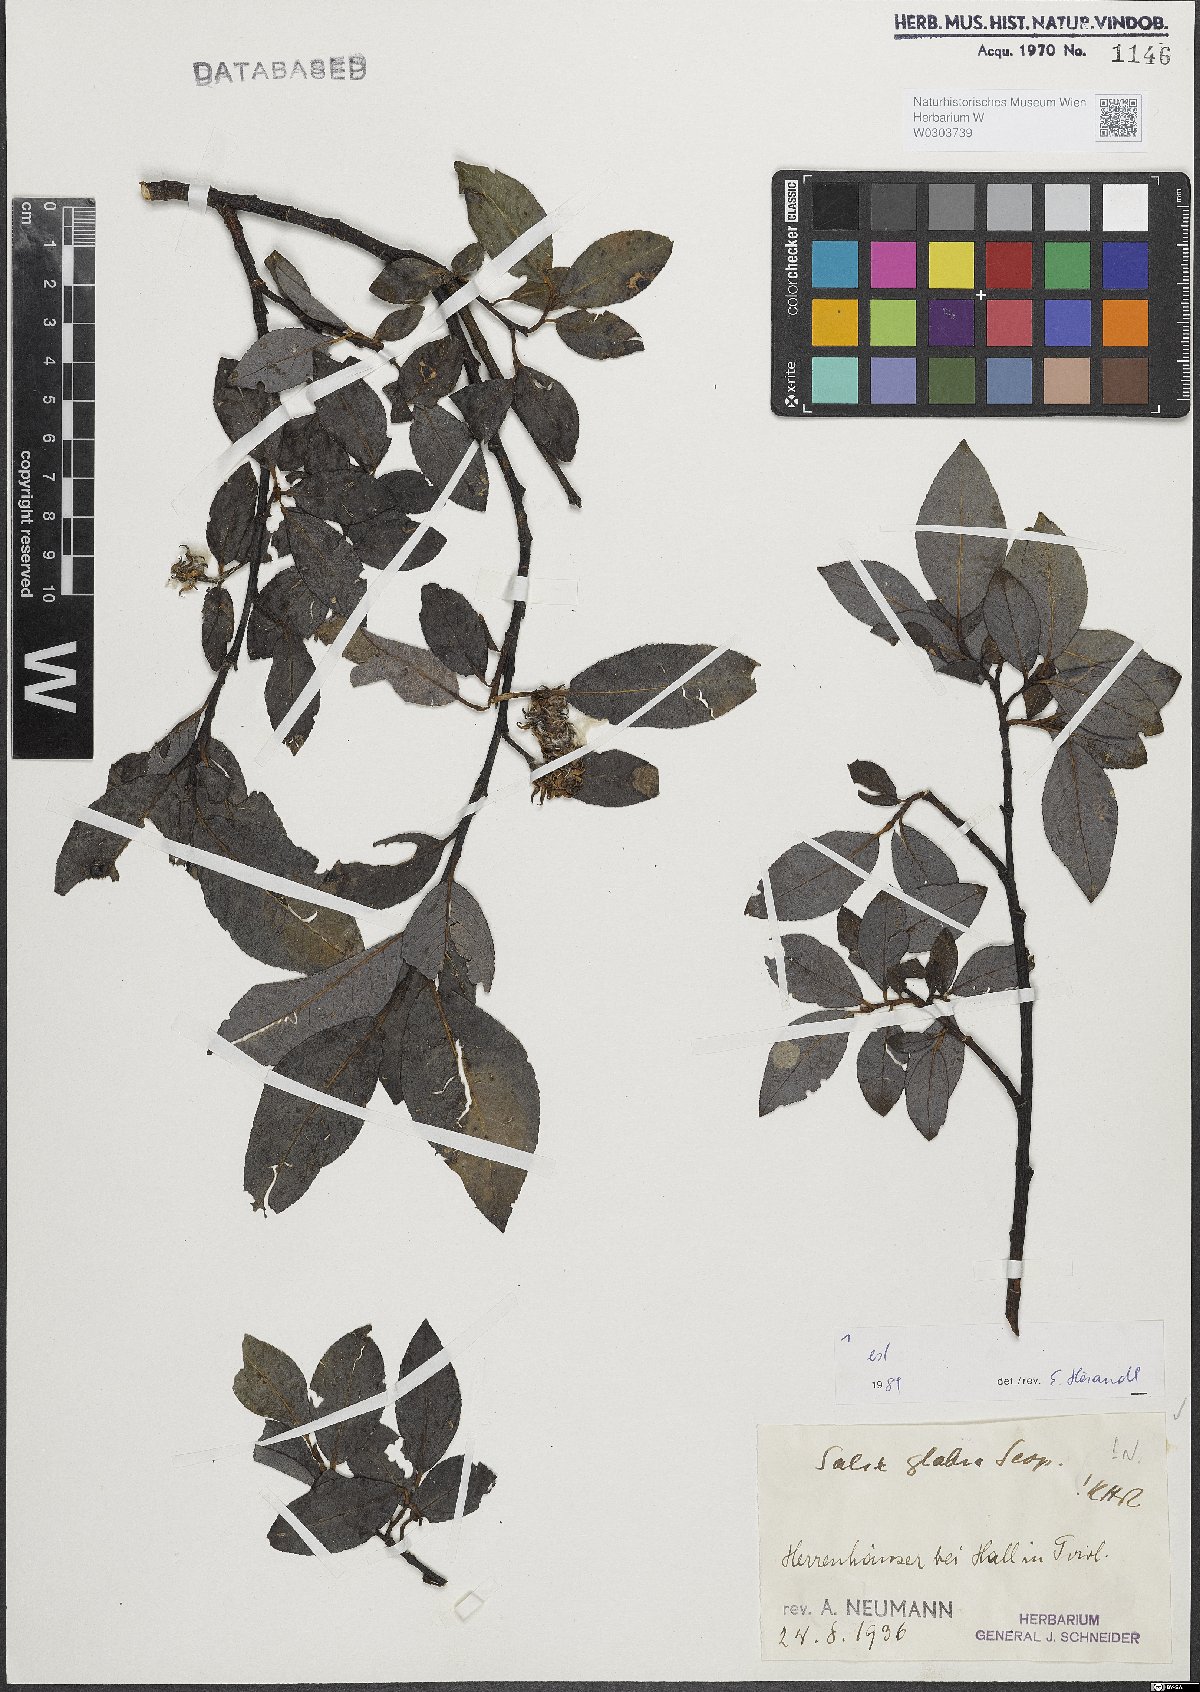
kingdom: Plantae
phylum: Tracheophyta
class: Magnoliopsida
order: Malpighiales
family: Salicaceae
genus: Salix
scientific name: Salix glabra
